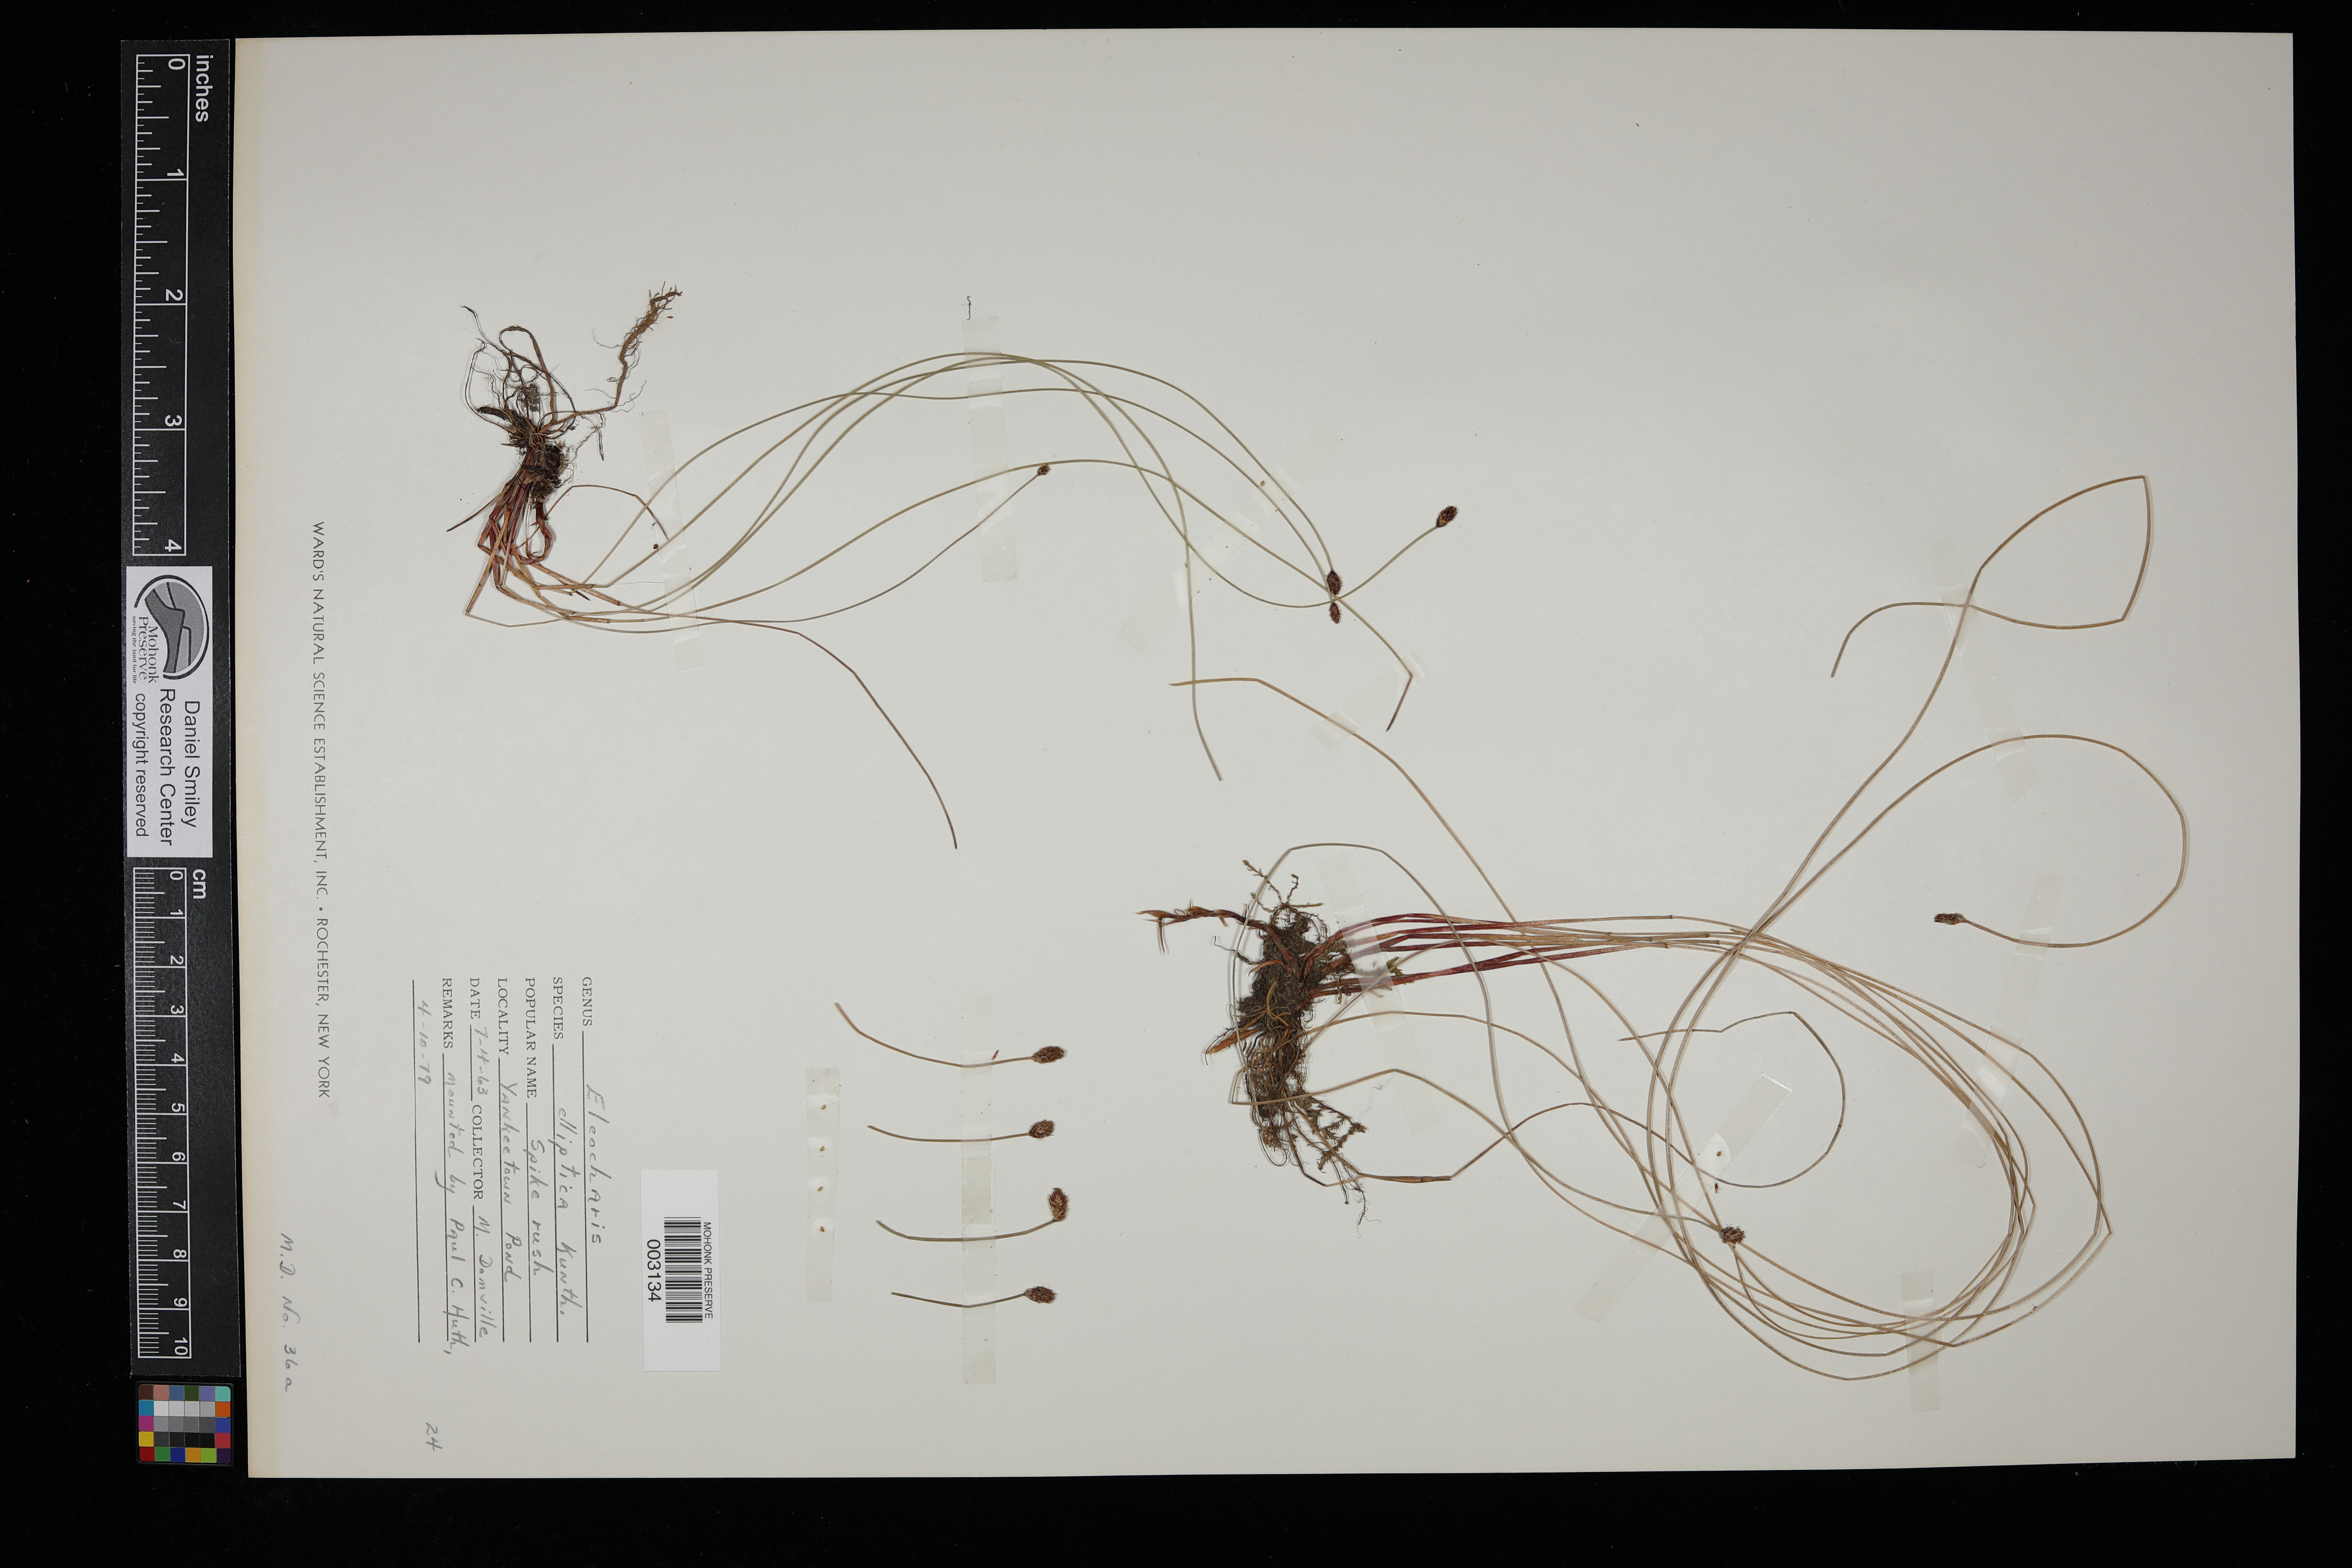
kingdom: Plantae
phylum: Tracheophyta
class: Liliopsida
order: Poales
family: Cyperaceae
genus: Eleocharis
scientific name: Eleocharis elliptica
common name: Capitate spikerush
